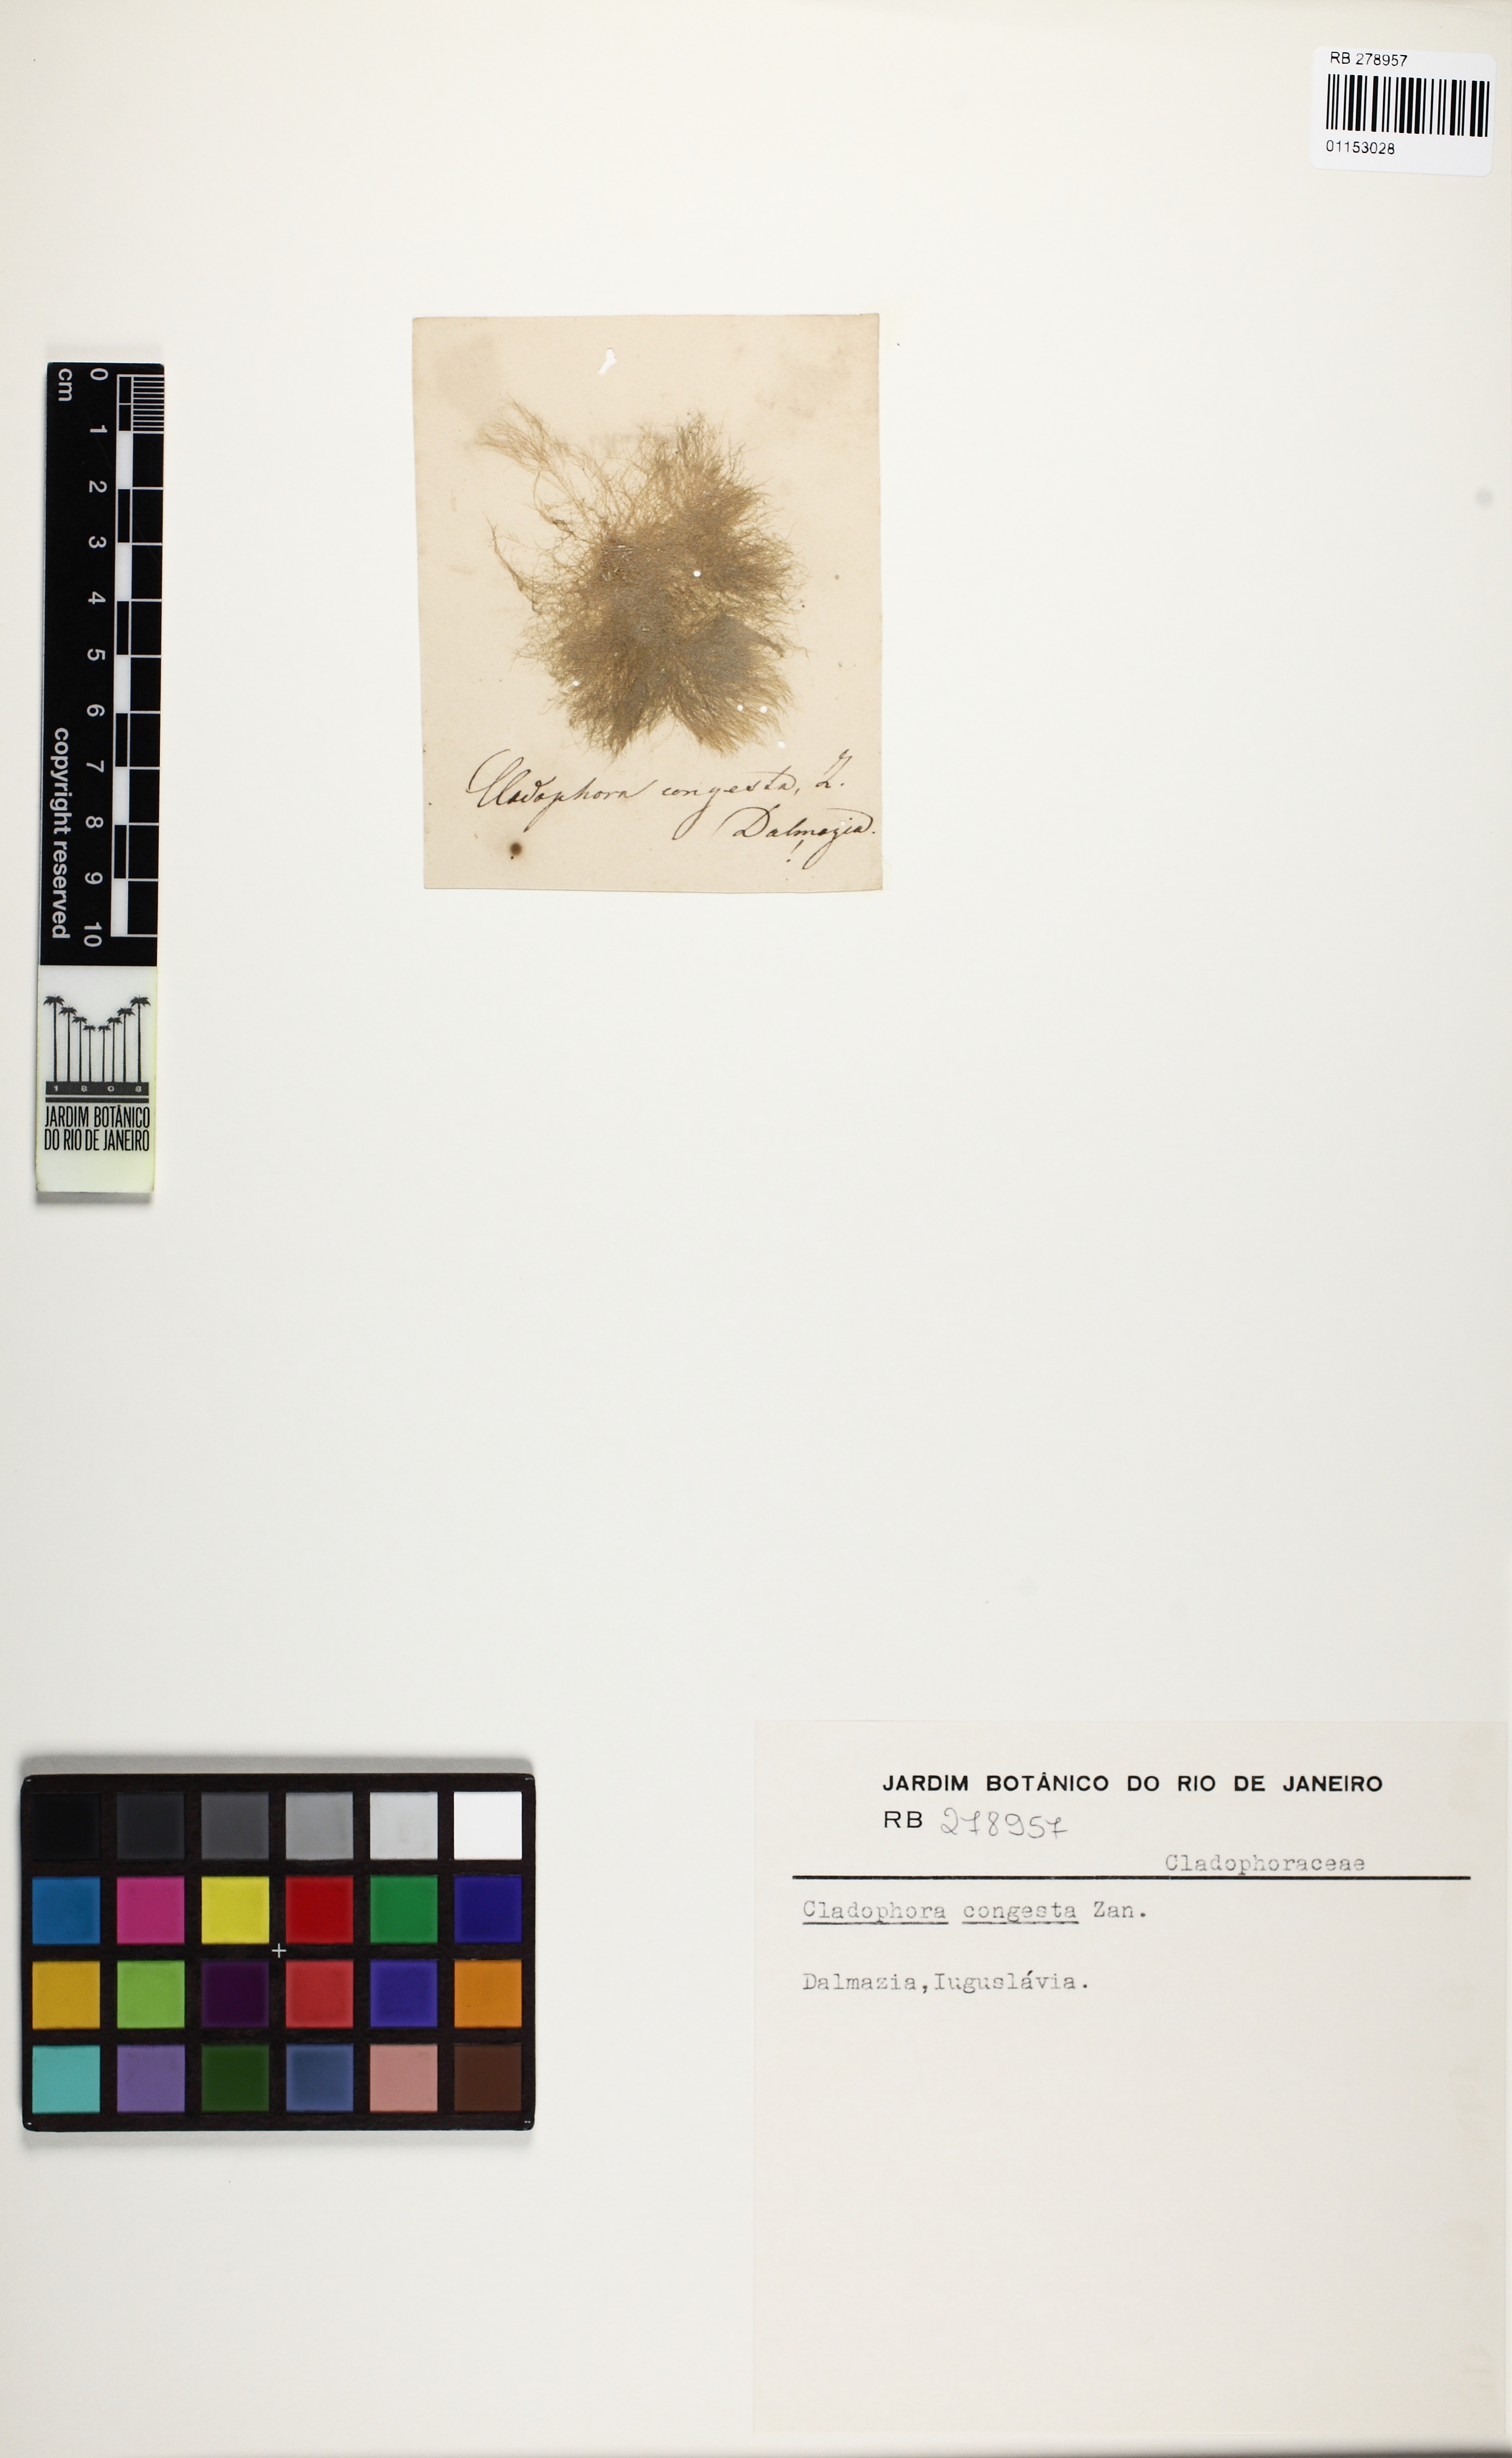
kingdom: Plantae
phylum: Chlorophyta
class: Ulvophyceae
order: Cladophorales
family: Cladophoraceae
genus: Cladophora
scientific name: Cladophora conferta
